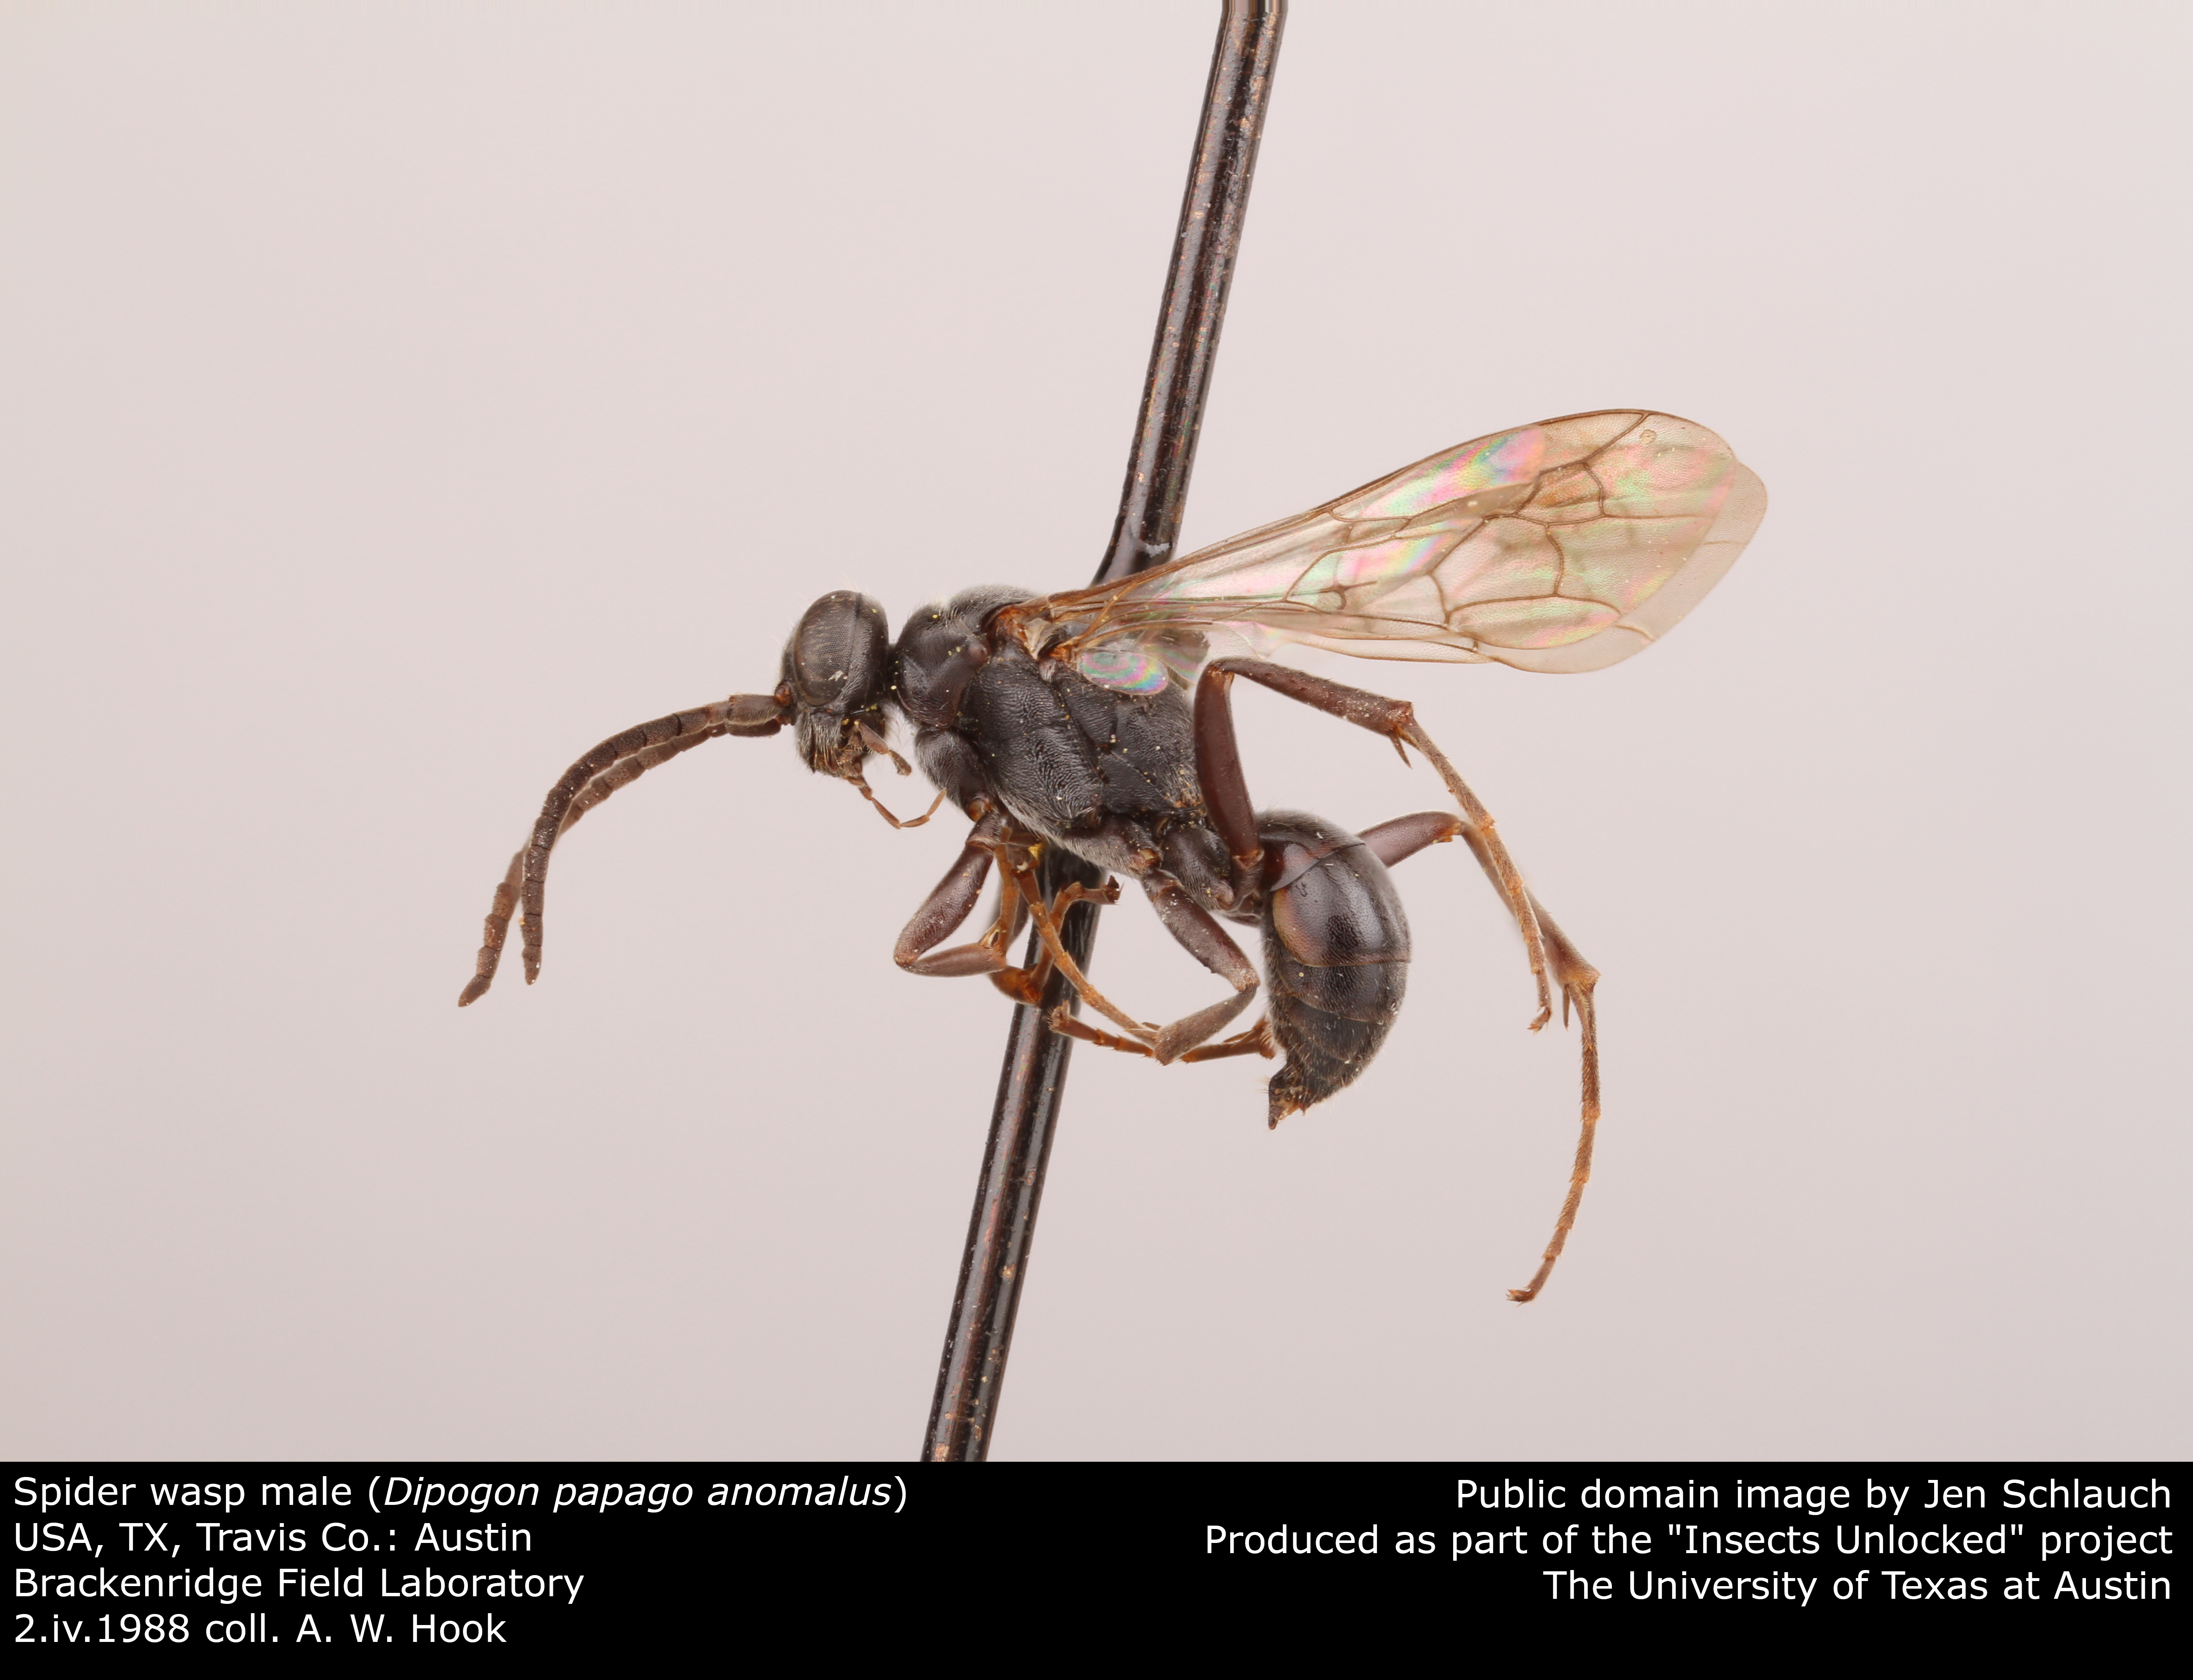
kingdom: Animalia
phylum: Arthropoda
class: Insecta
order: Hymenoptera
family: Pompilidae
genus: Dipogon
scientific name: Dipogon papago
